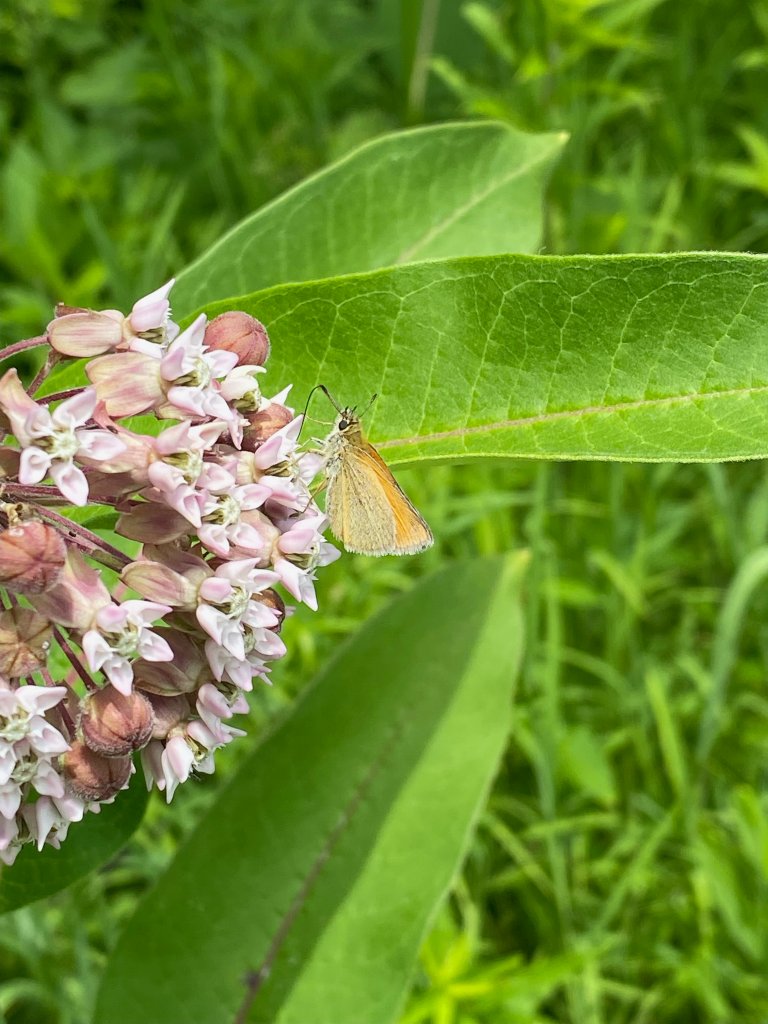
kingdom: Animalia
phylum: Arthropoda
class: Insecta
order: Lepidoptera
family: Hesperiidae
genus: Thymelicus
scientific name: Thymelicus lineola
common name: European Skipper
